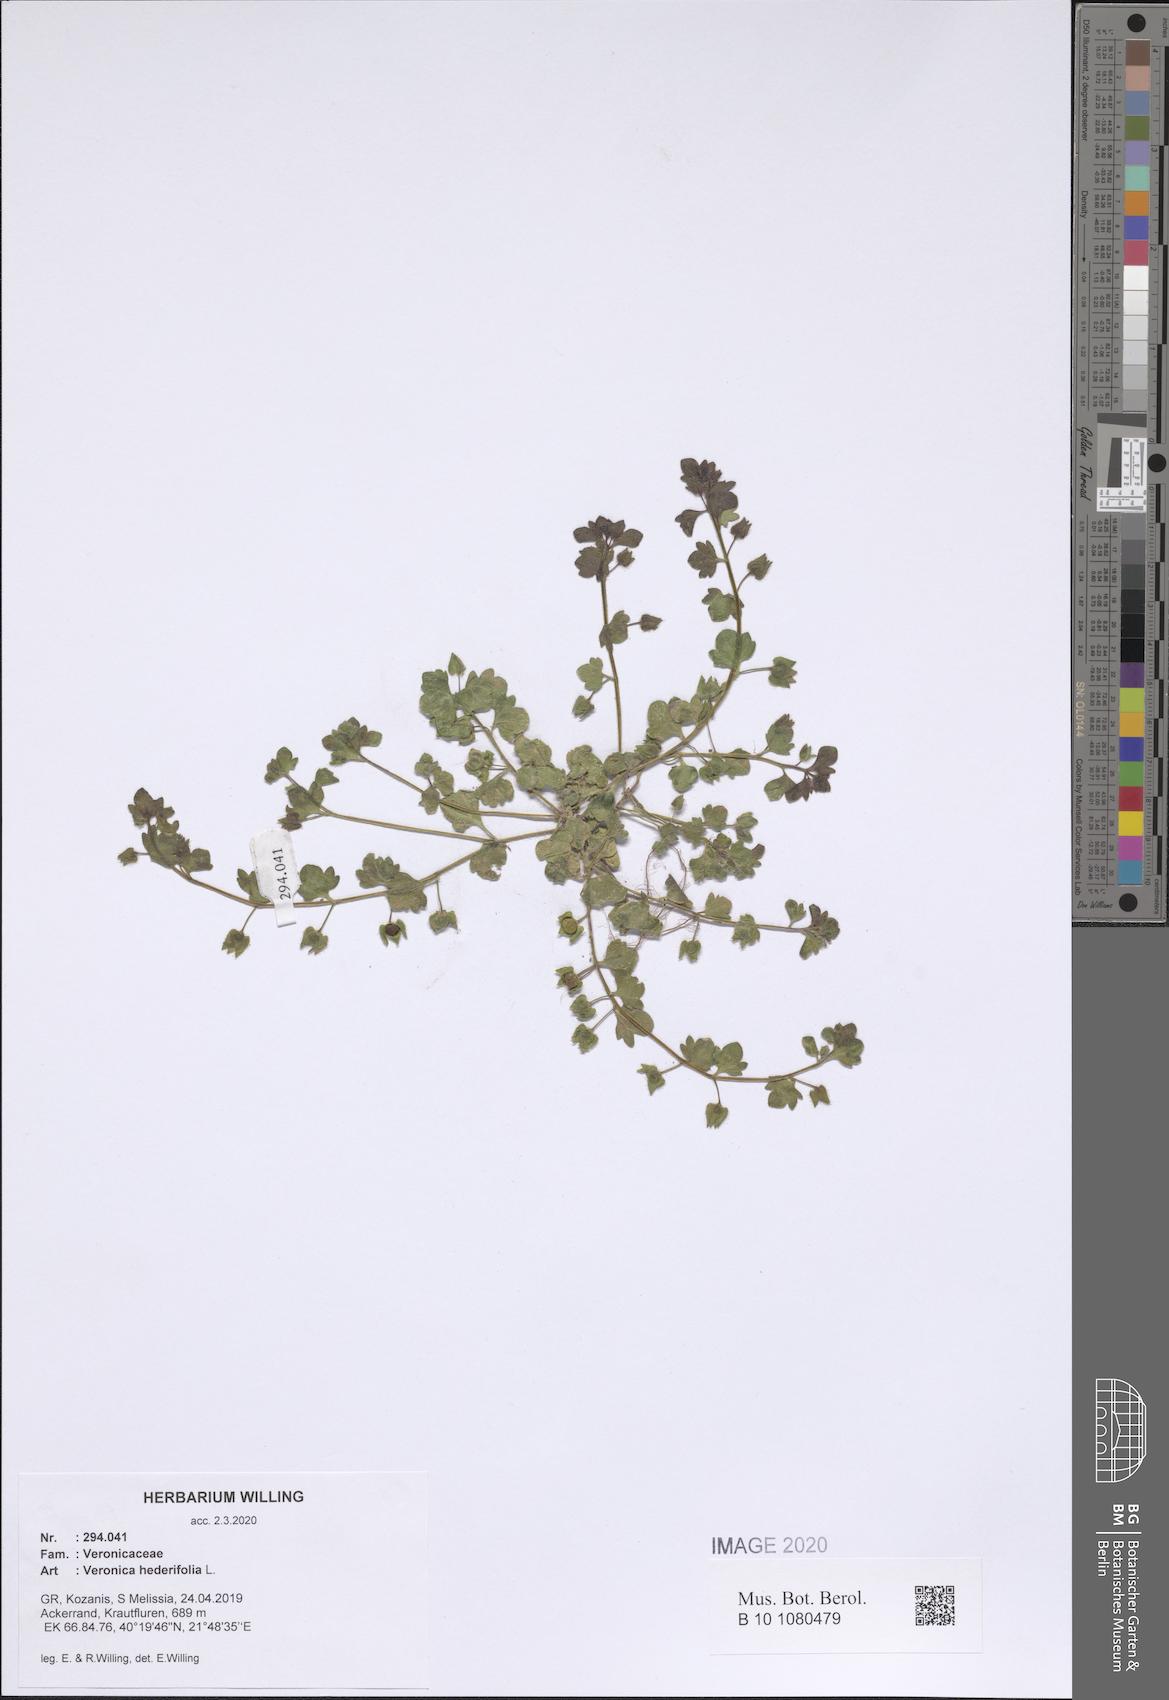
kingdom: Plantae
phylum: Tracheophyta
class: Magnoliopsida
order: Lamiales
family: Plantaginaceae
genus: Veronica
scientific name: Veronica hederifolia
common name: Ivy-leaved speedwell
